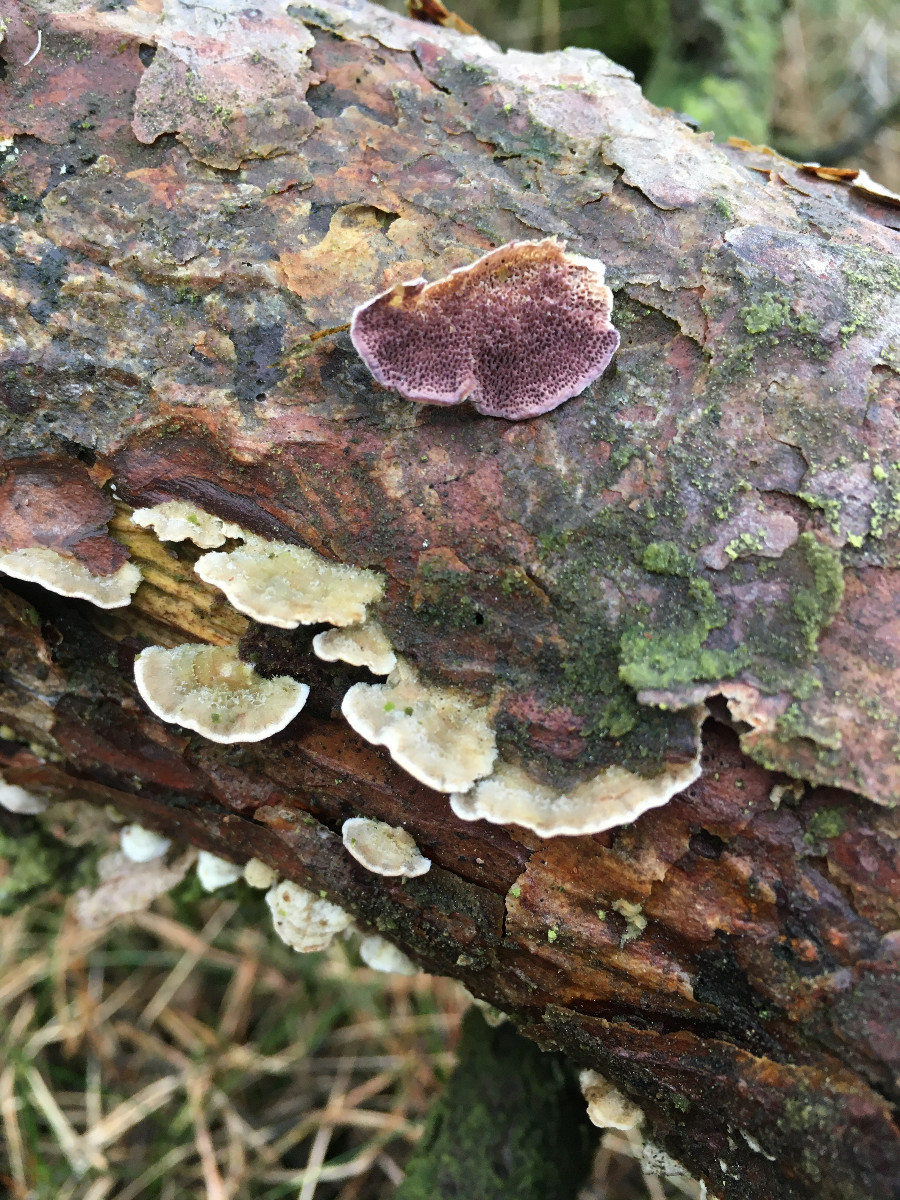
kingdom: Fungi
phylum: Basidiomycota
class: Agaricomycetes
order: Hymenochaetales
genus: Trichaptum
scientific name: Trichaptum fuscoviolaceum
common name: tandet violporesvamp
